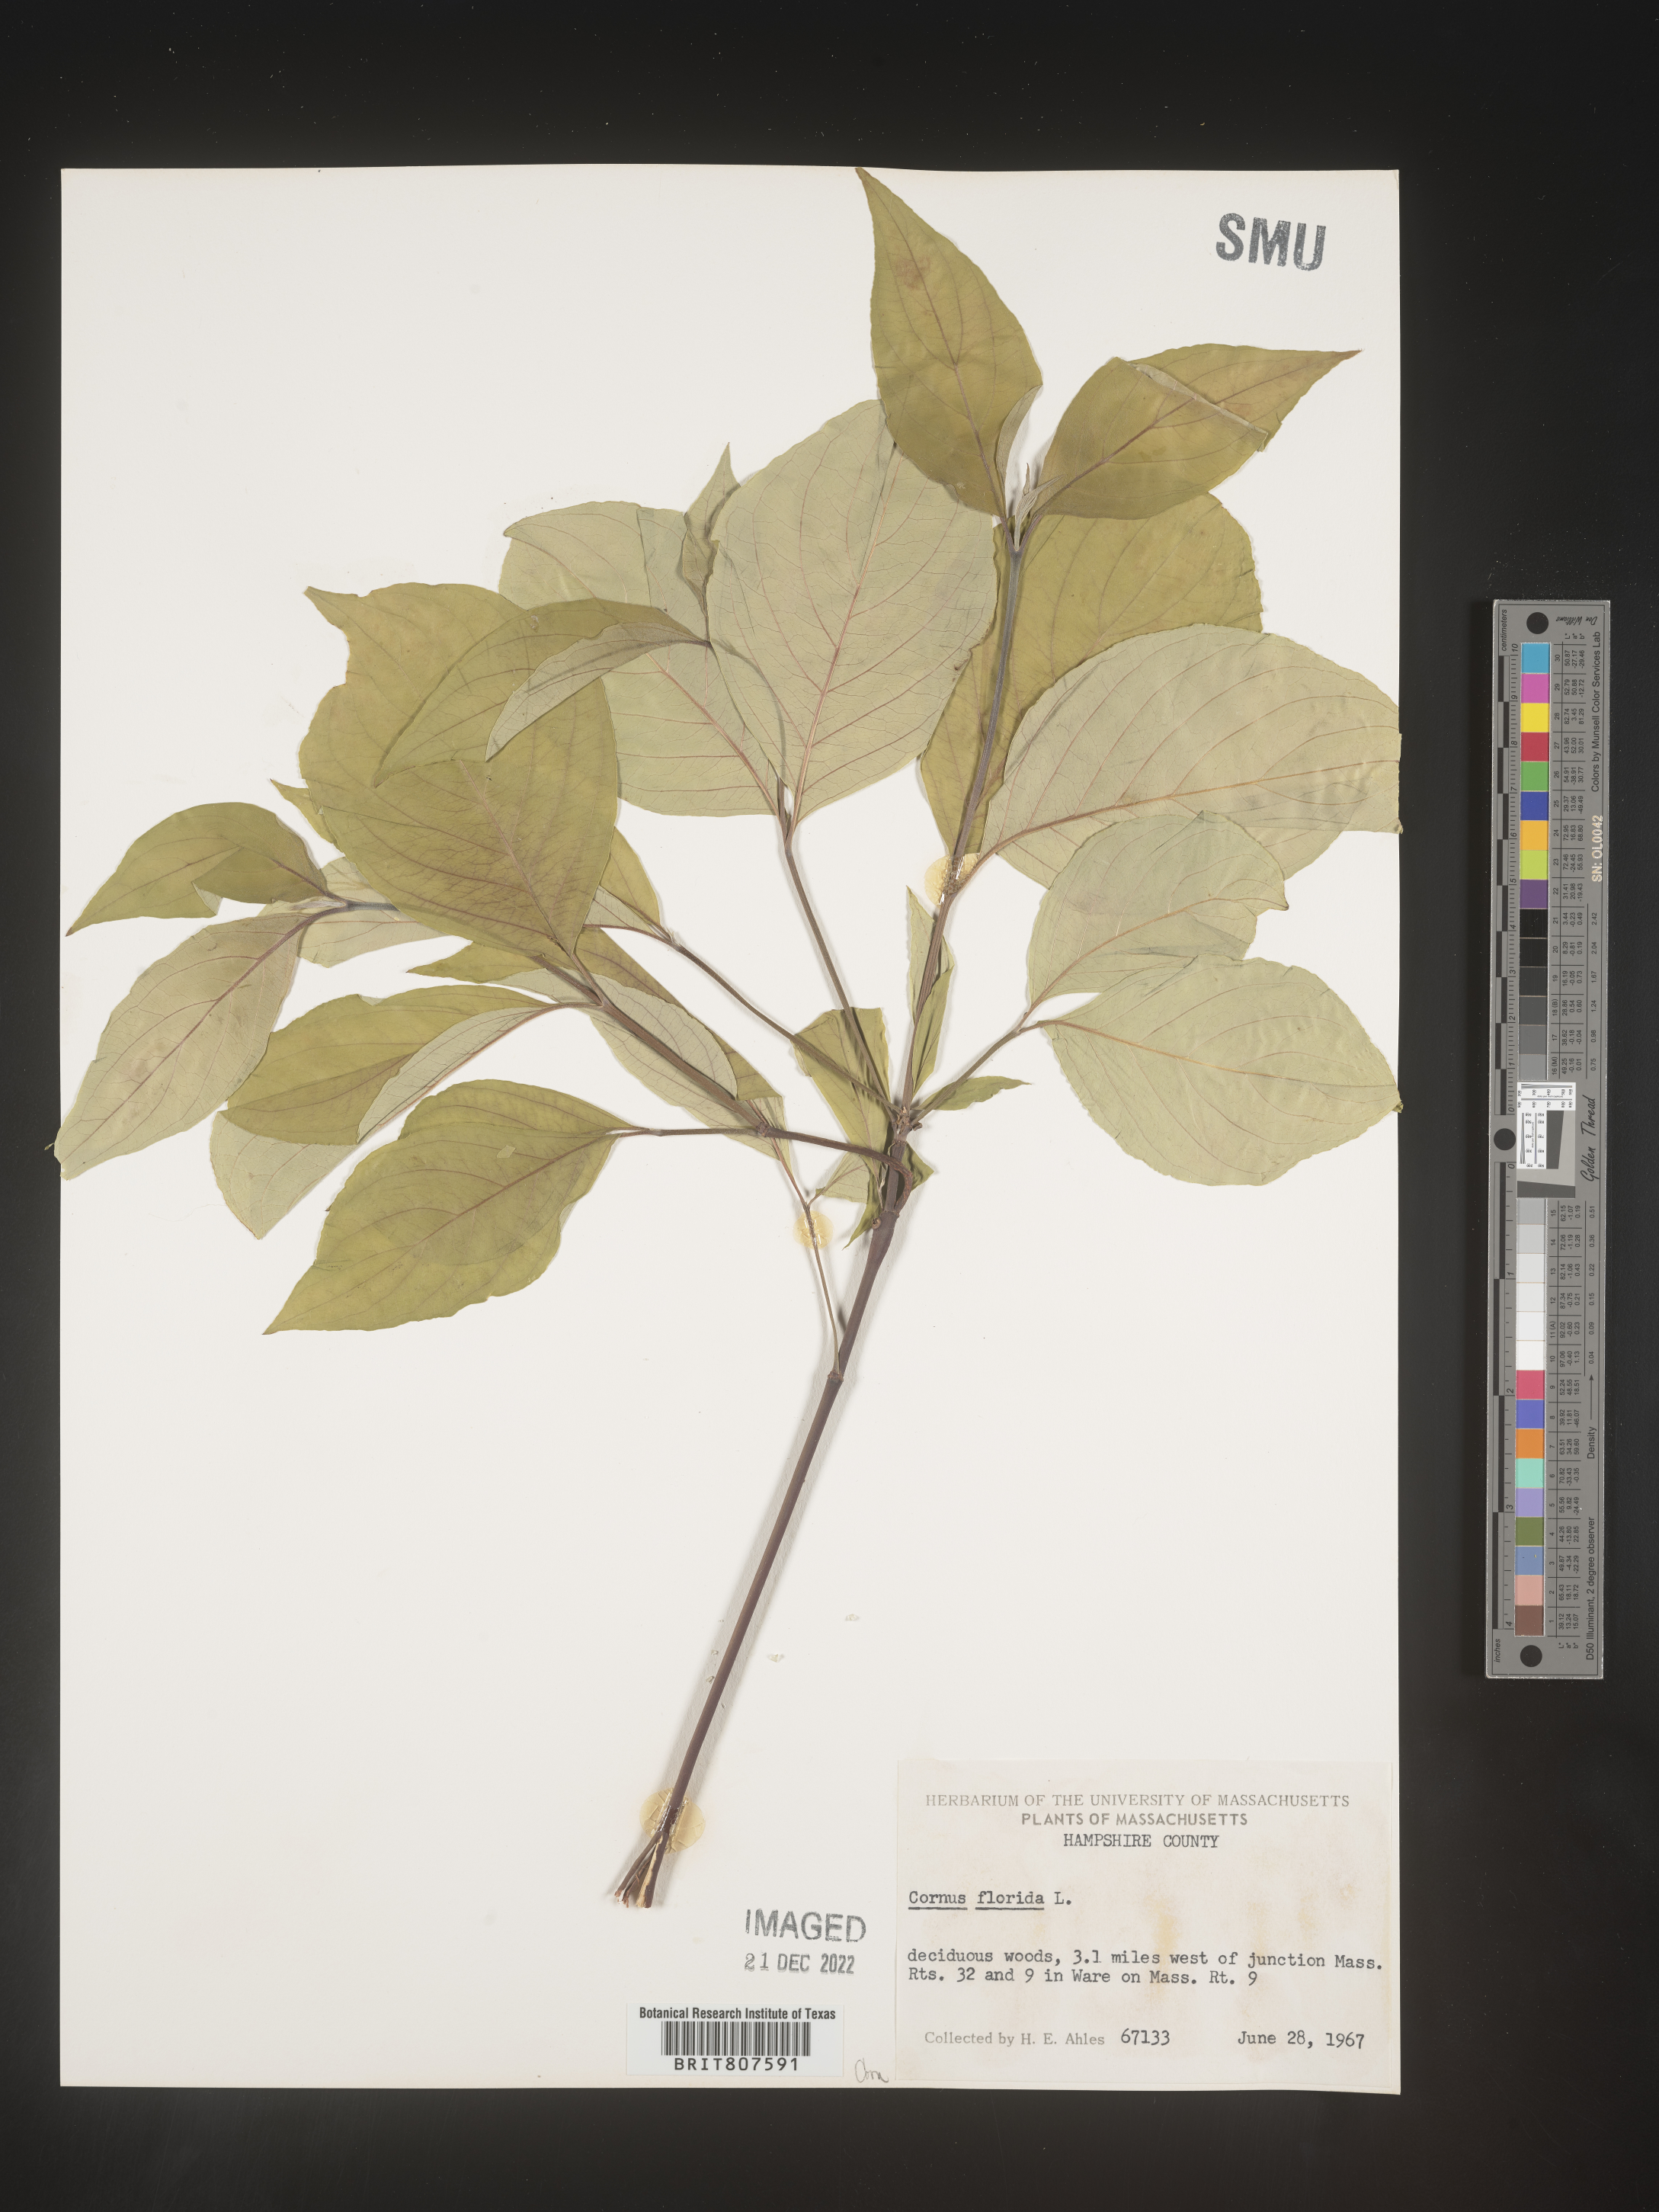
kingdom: Plantae
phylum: Tracheophyta
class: Magnoliopsida
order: Cornales
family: Cornaceae
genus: Cornus
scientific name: Cornus florida
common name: Flowering dogwood
